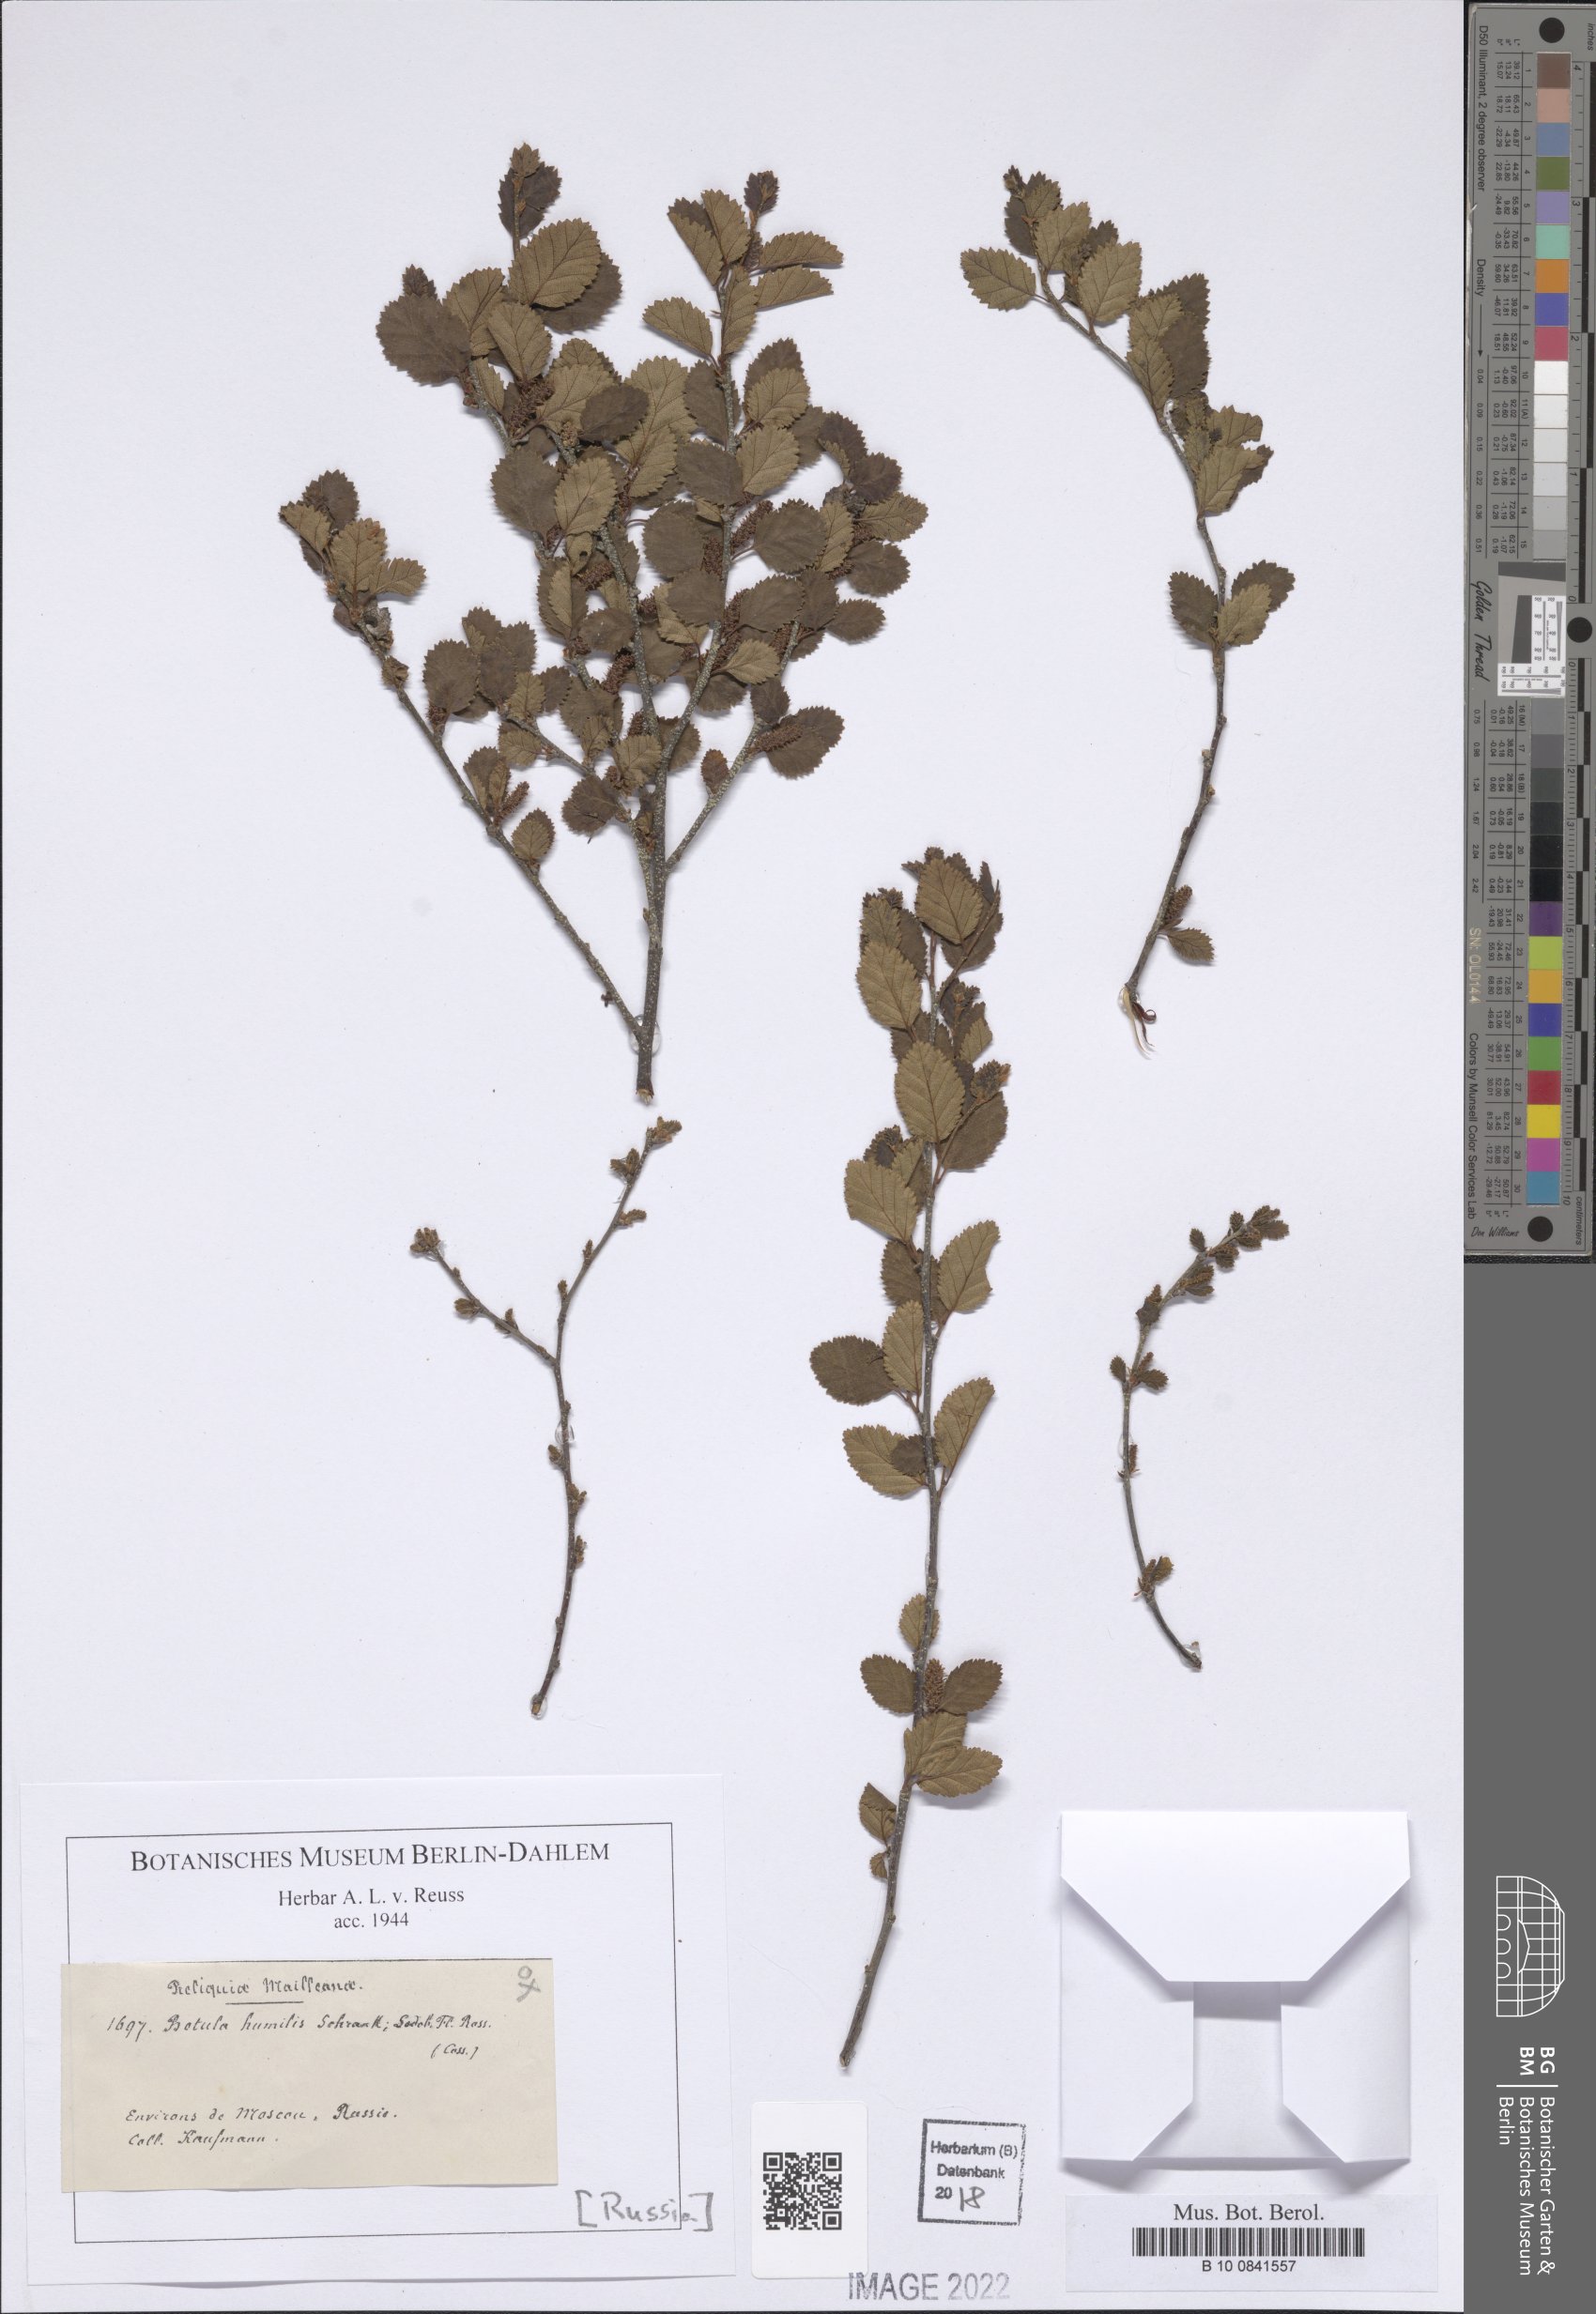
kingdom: Plantae
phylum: Tracheophyta
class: Magnoliopsida
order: Fagales
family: Betulaceae
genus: Betula
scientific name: Betula humilis
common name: Shrubby birch
